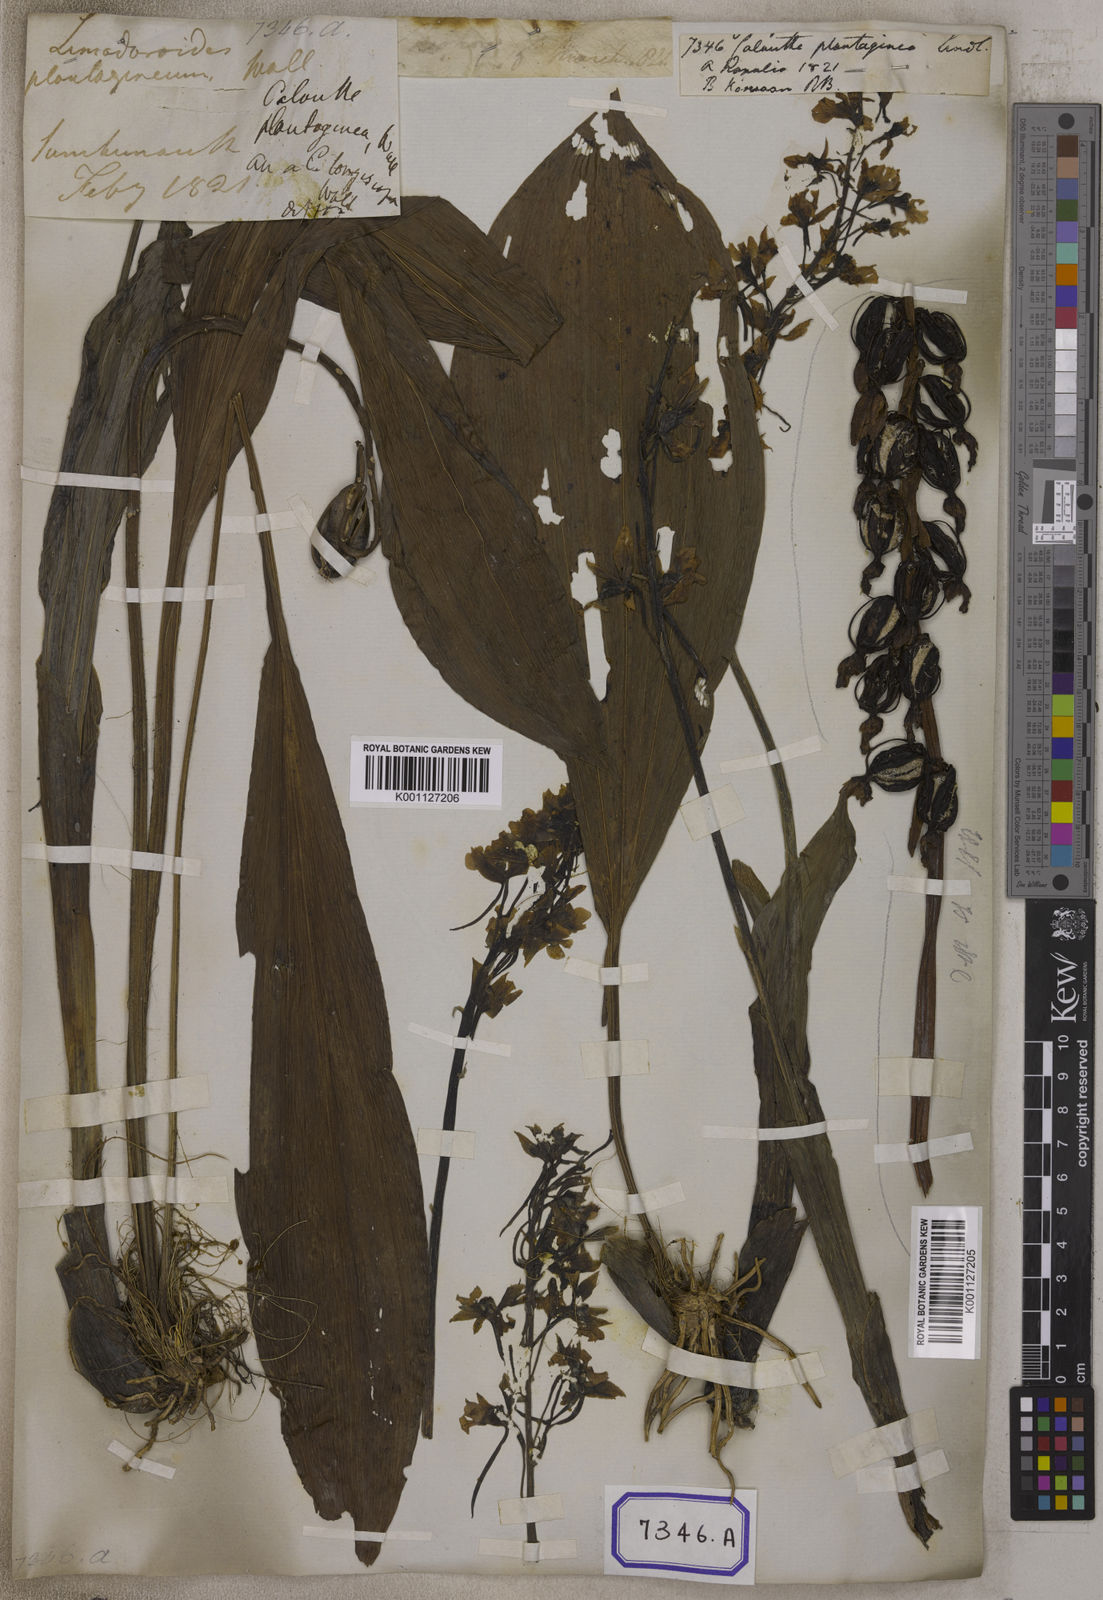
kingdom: Plantae
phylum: Tracheophyta
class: Liliopsida
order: Asparagales
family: Orchidaceae
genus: Calanthe
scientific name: Calanthe plantaginea
